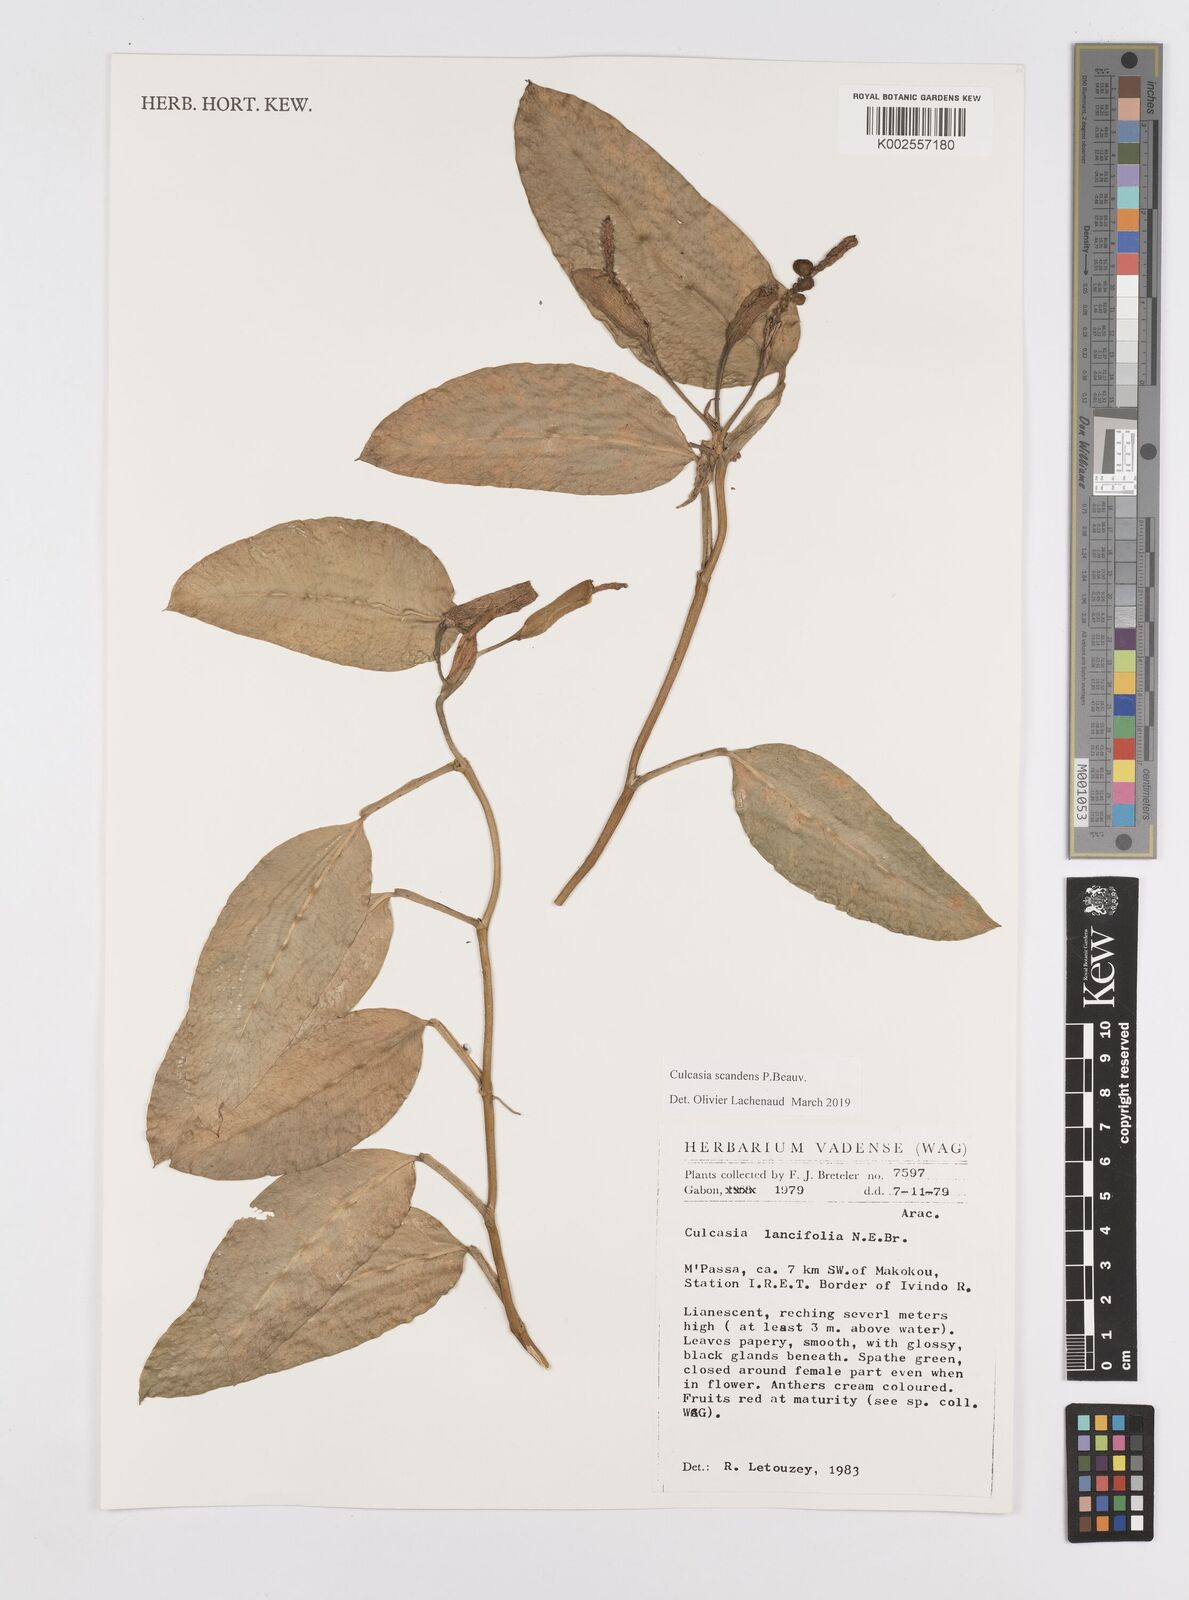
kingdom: Plantae
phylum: Tracheophyta
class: Liliopsida
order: Alismatales
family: Araceae
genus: Culcasia
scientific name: Culcasia scandens
